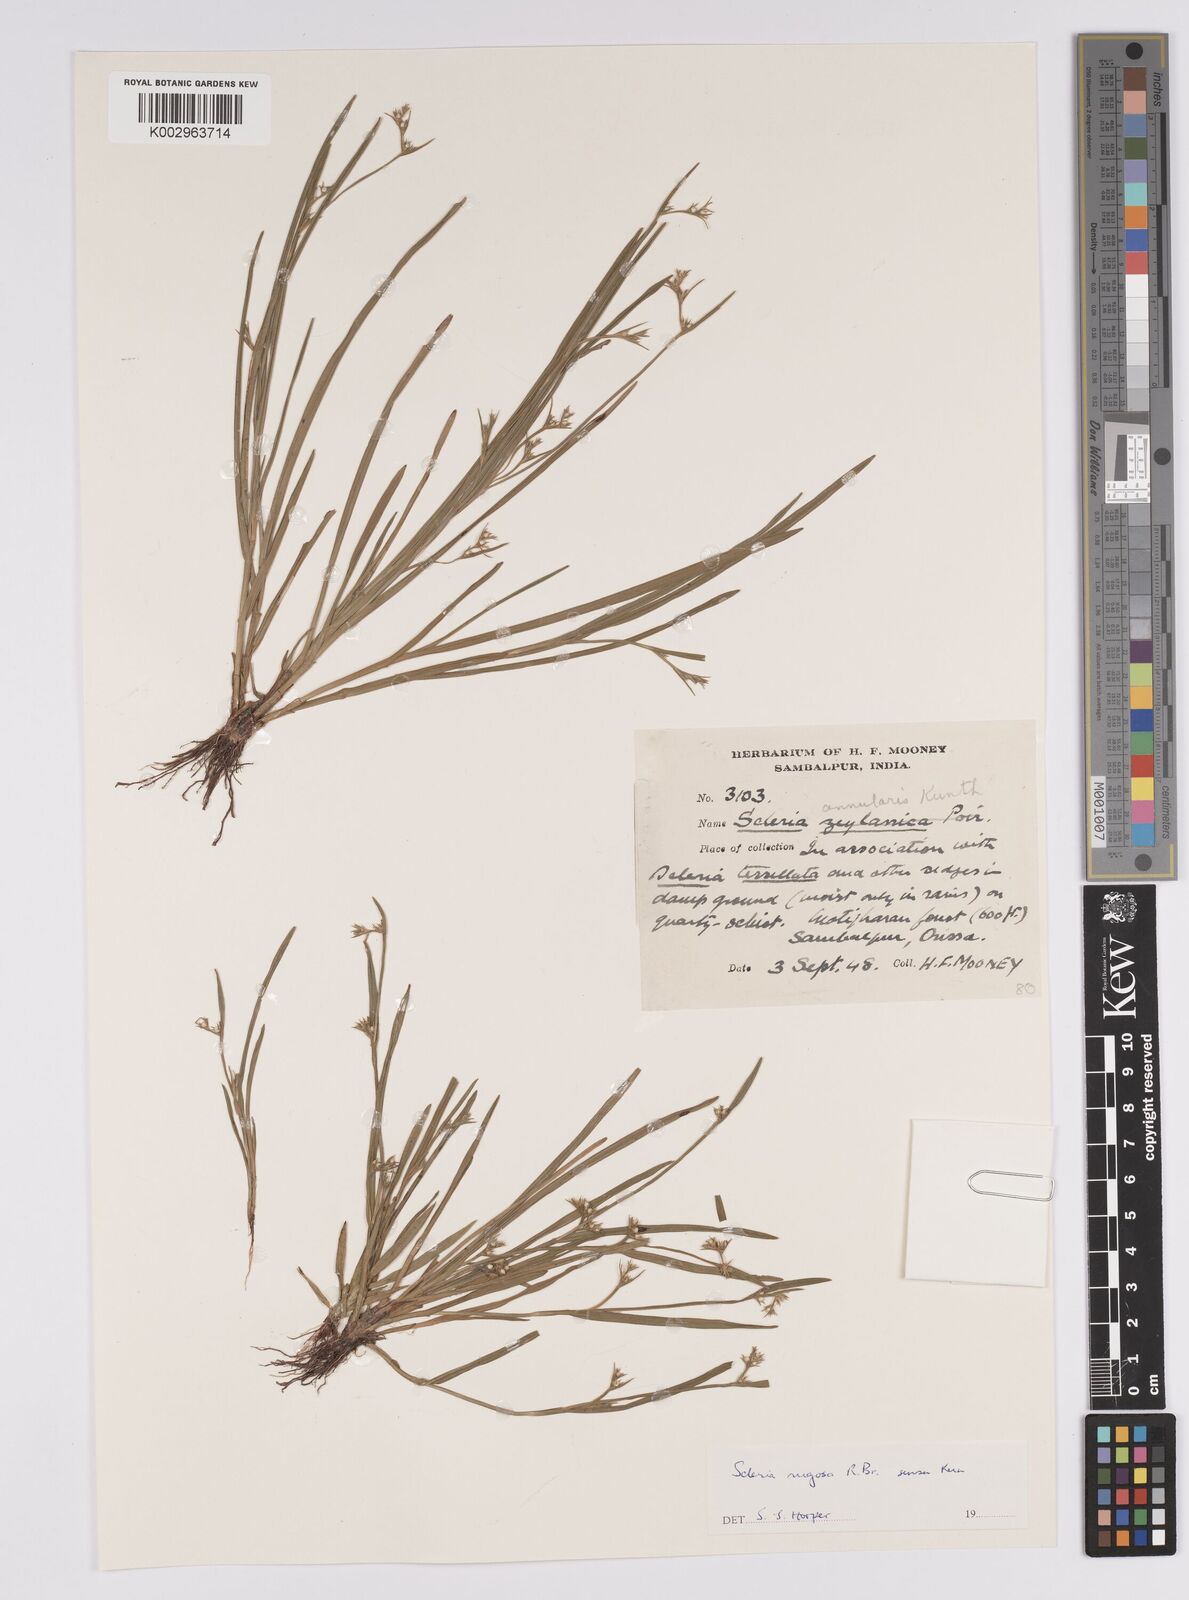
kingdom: Plantae
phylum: Tracheophyta
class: Liliopsida
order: Poales
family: Cyperaceae
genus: Scleria
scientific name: Scleria rugosa
